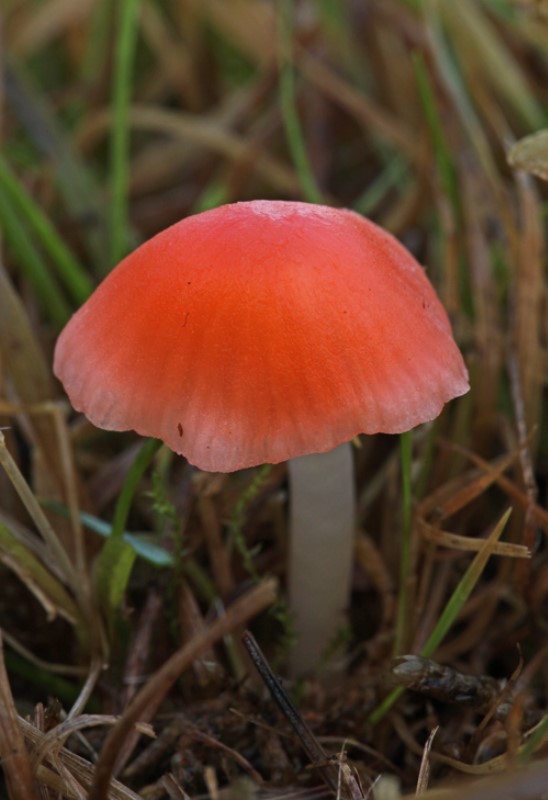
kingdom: Fungi
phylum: Basidiomycota
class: Agaricomycetes
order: Agaricales
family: Mycenaceae
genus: Atheniella
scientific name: Atheniella adonis
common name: rønnerød huesvamp
